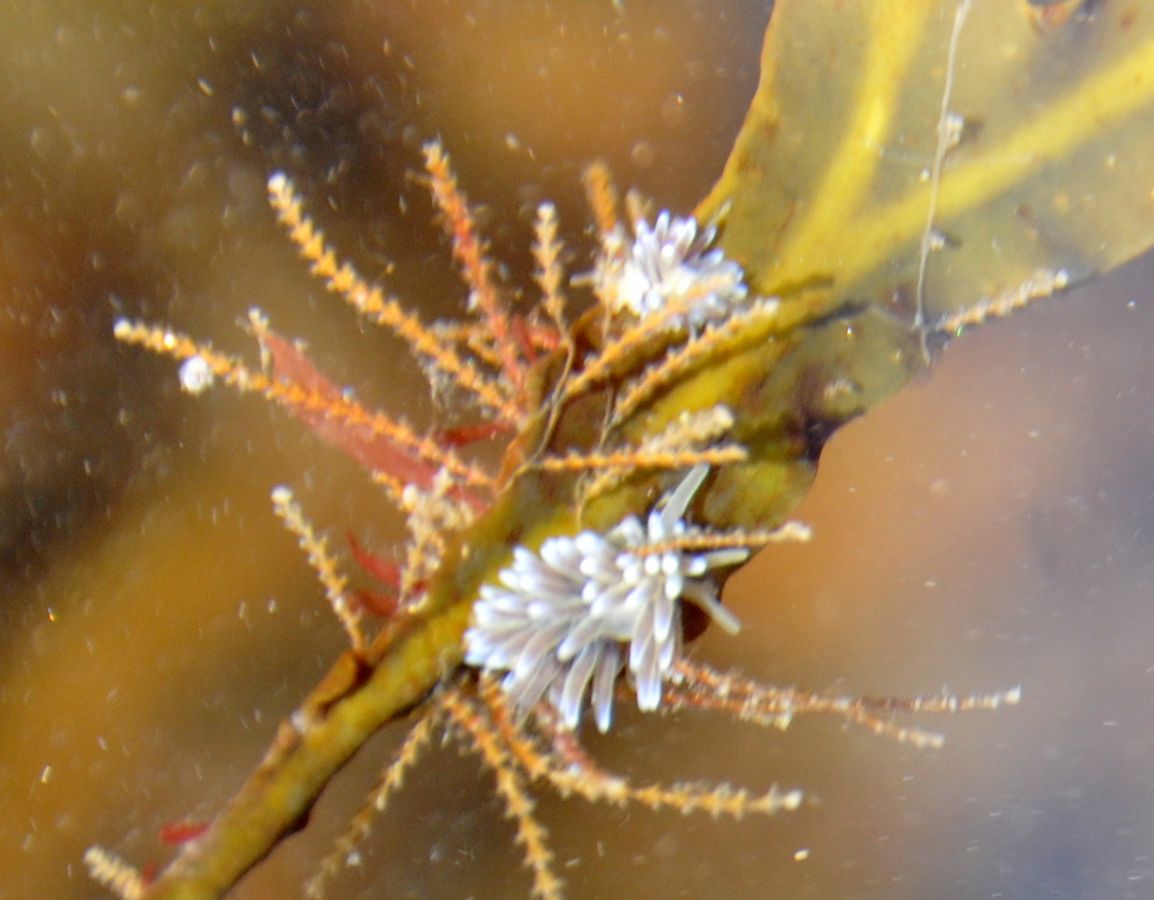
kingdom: Animalia
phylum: Mollusca
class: Gastropoda
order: Nudibranchia
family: Cuthonellidae
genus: Cuthonella
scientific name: Cuthonella hiemalis
